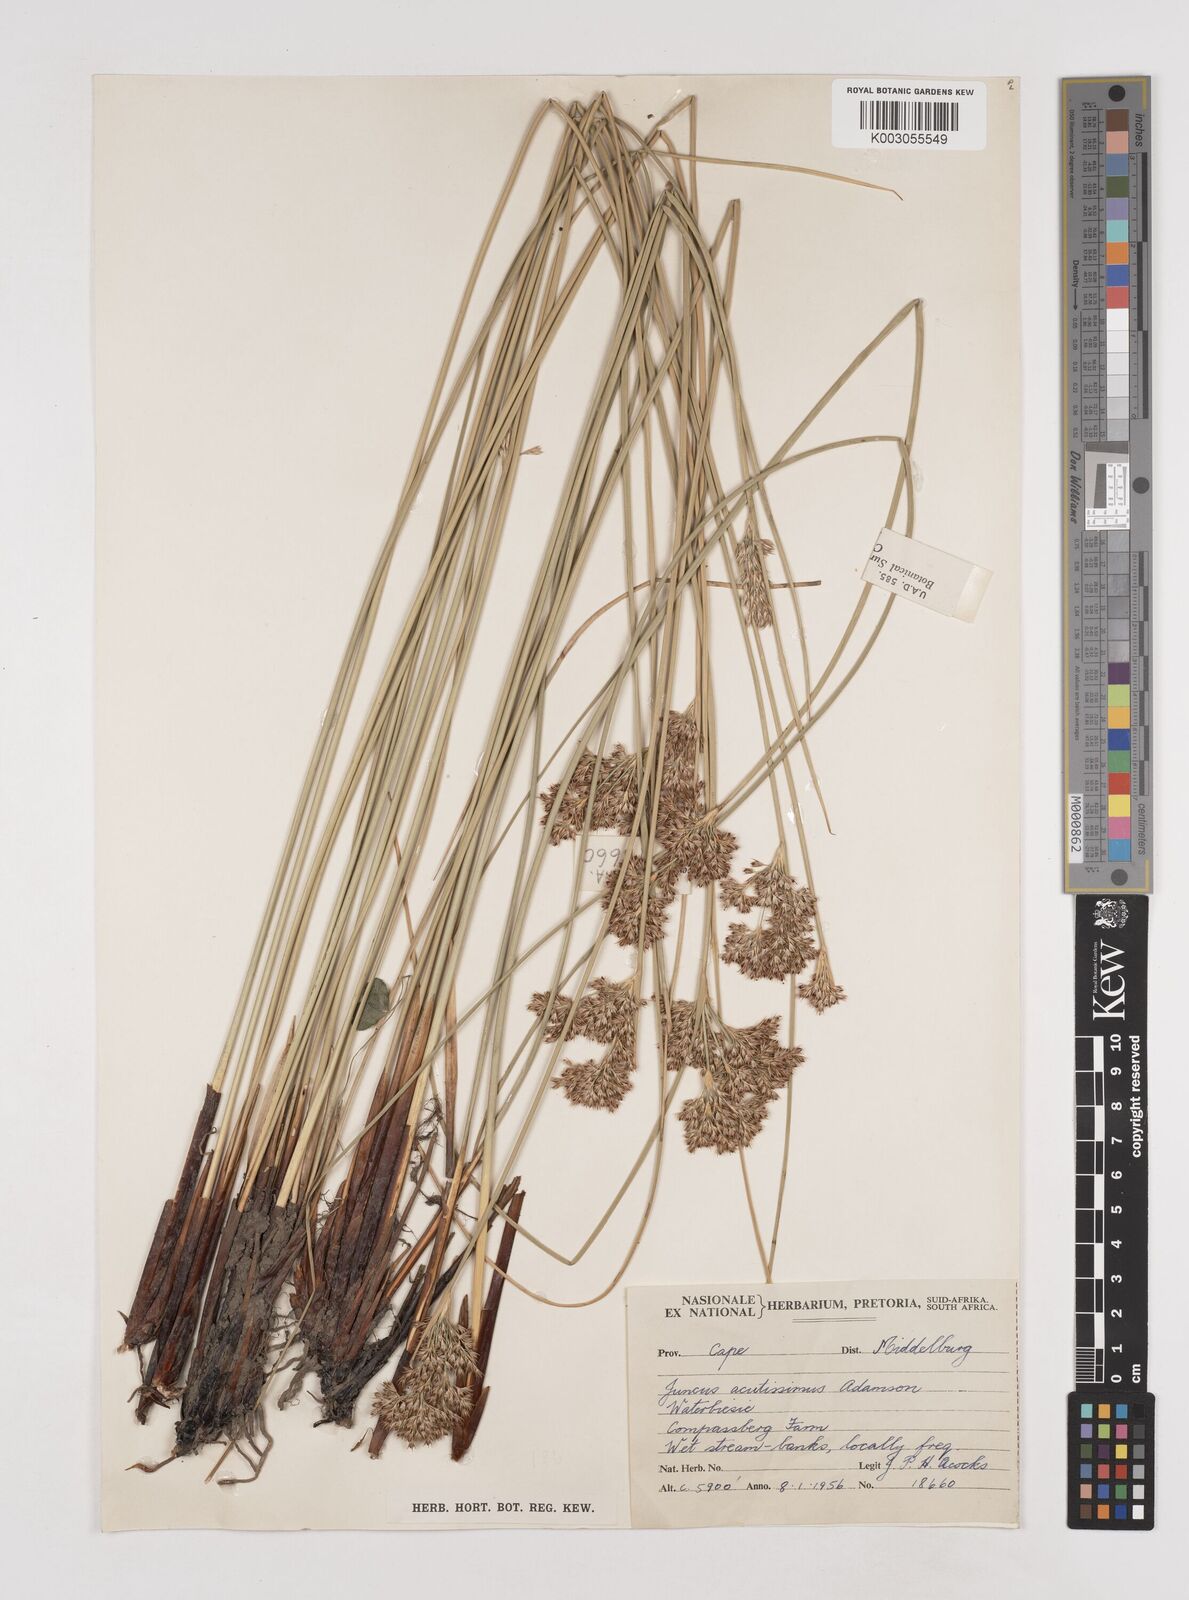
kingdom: Plantae
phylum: Tracheophyta
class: Liliopsida
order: Poales
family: Juncaceae
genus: Juncus
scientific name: Juncus inflexus
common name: Hard rush
